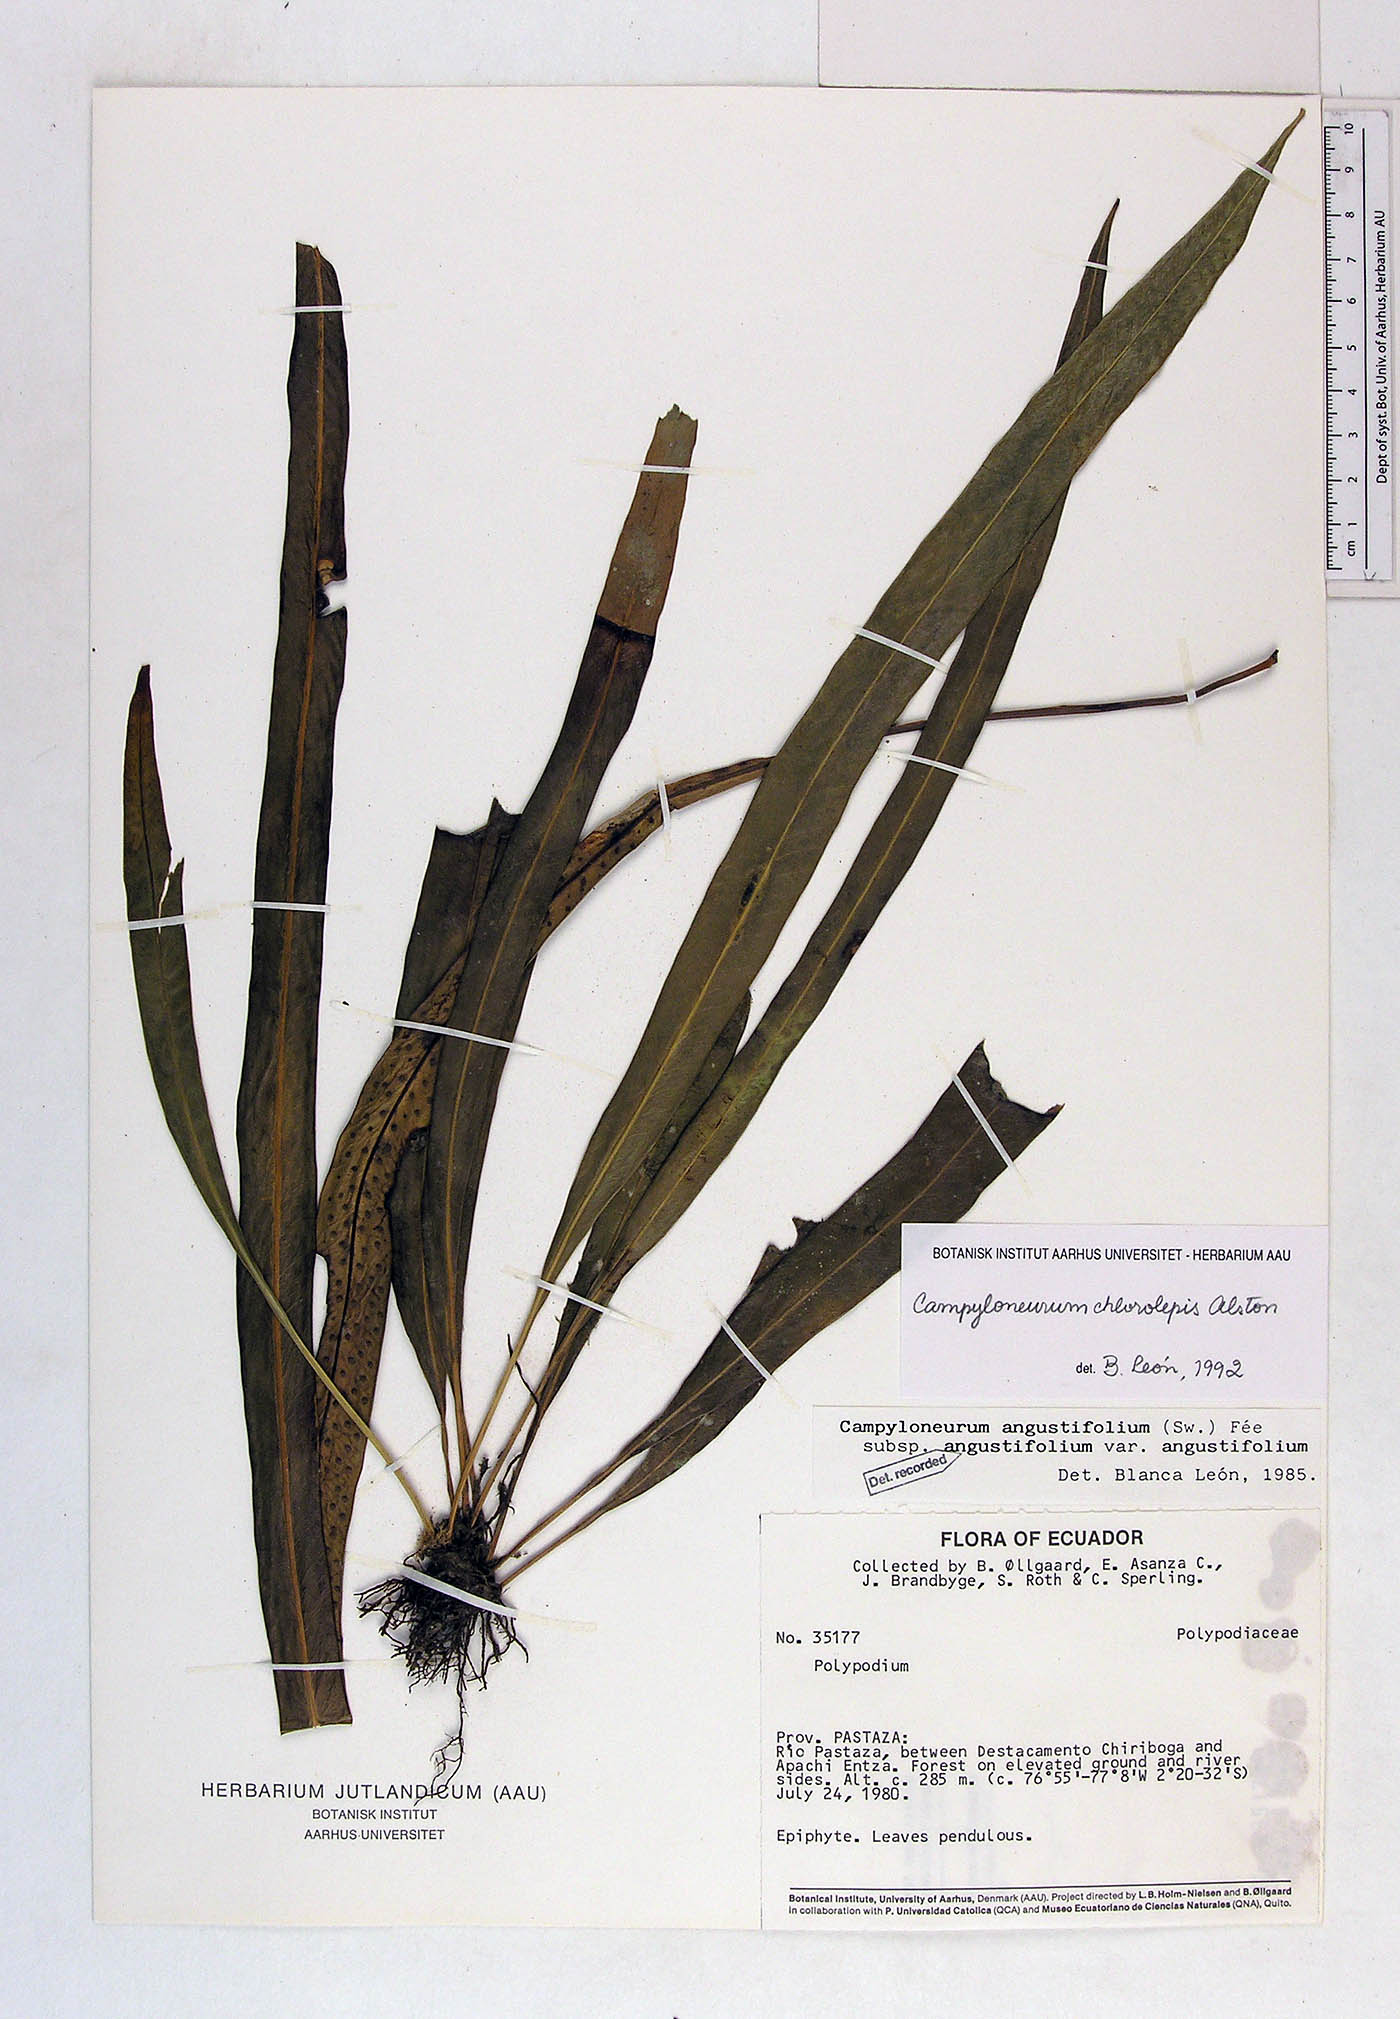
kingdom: Plantae
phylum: Tracheophyta
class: Polypodiopsida
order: Polypodiales
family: Polypodiaceae
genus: Campyloneurum
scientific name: Campyloneurum chlorolepis
